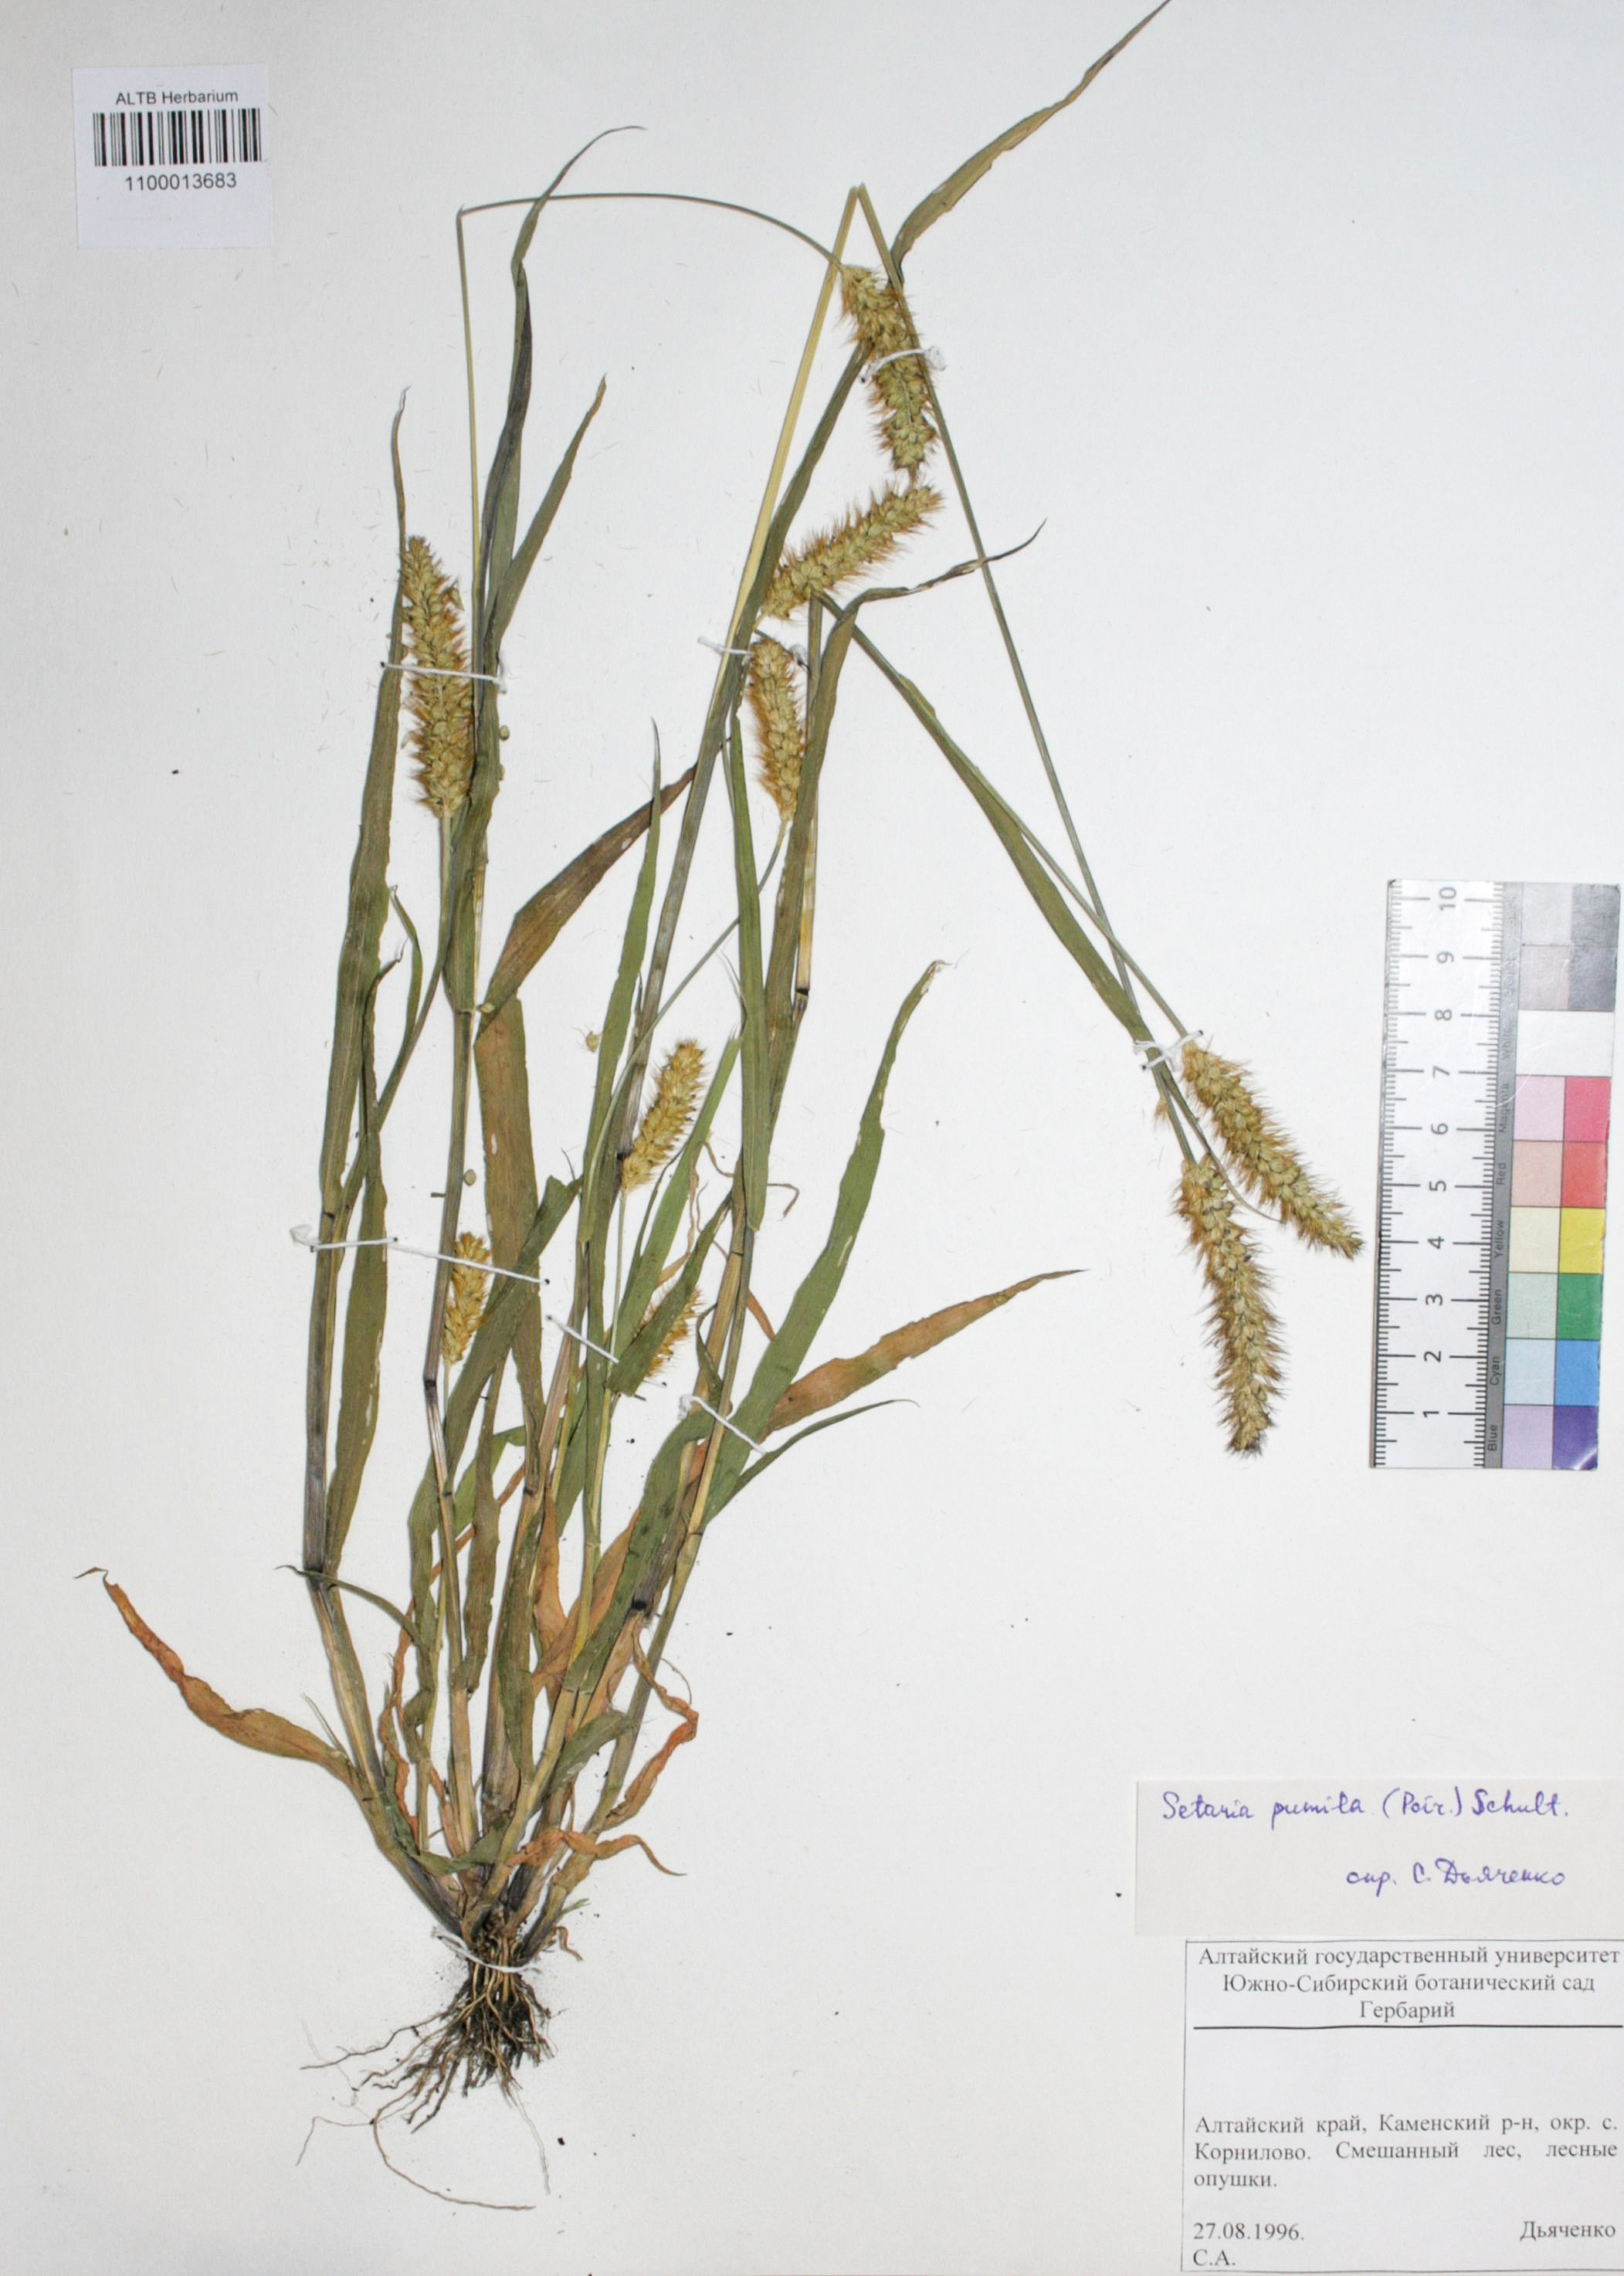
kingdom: Plantae
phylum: Tracheophyta
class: Liliopsida
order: Poales
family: Poaceae
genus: Setaria
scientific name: Setaria pumila
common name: Yellow bristle-grass
